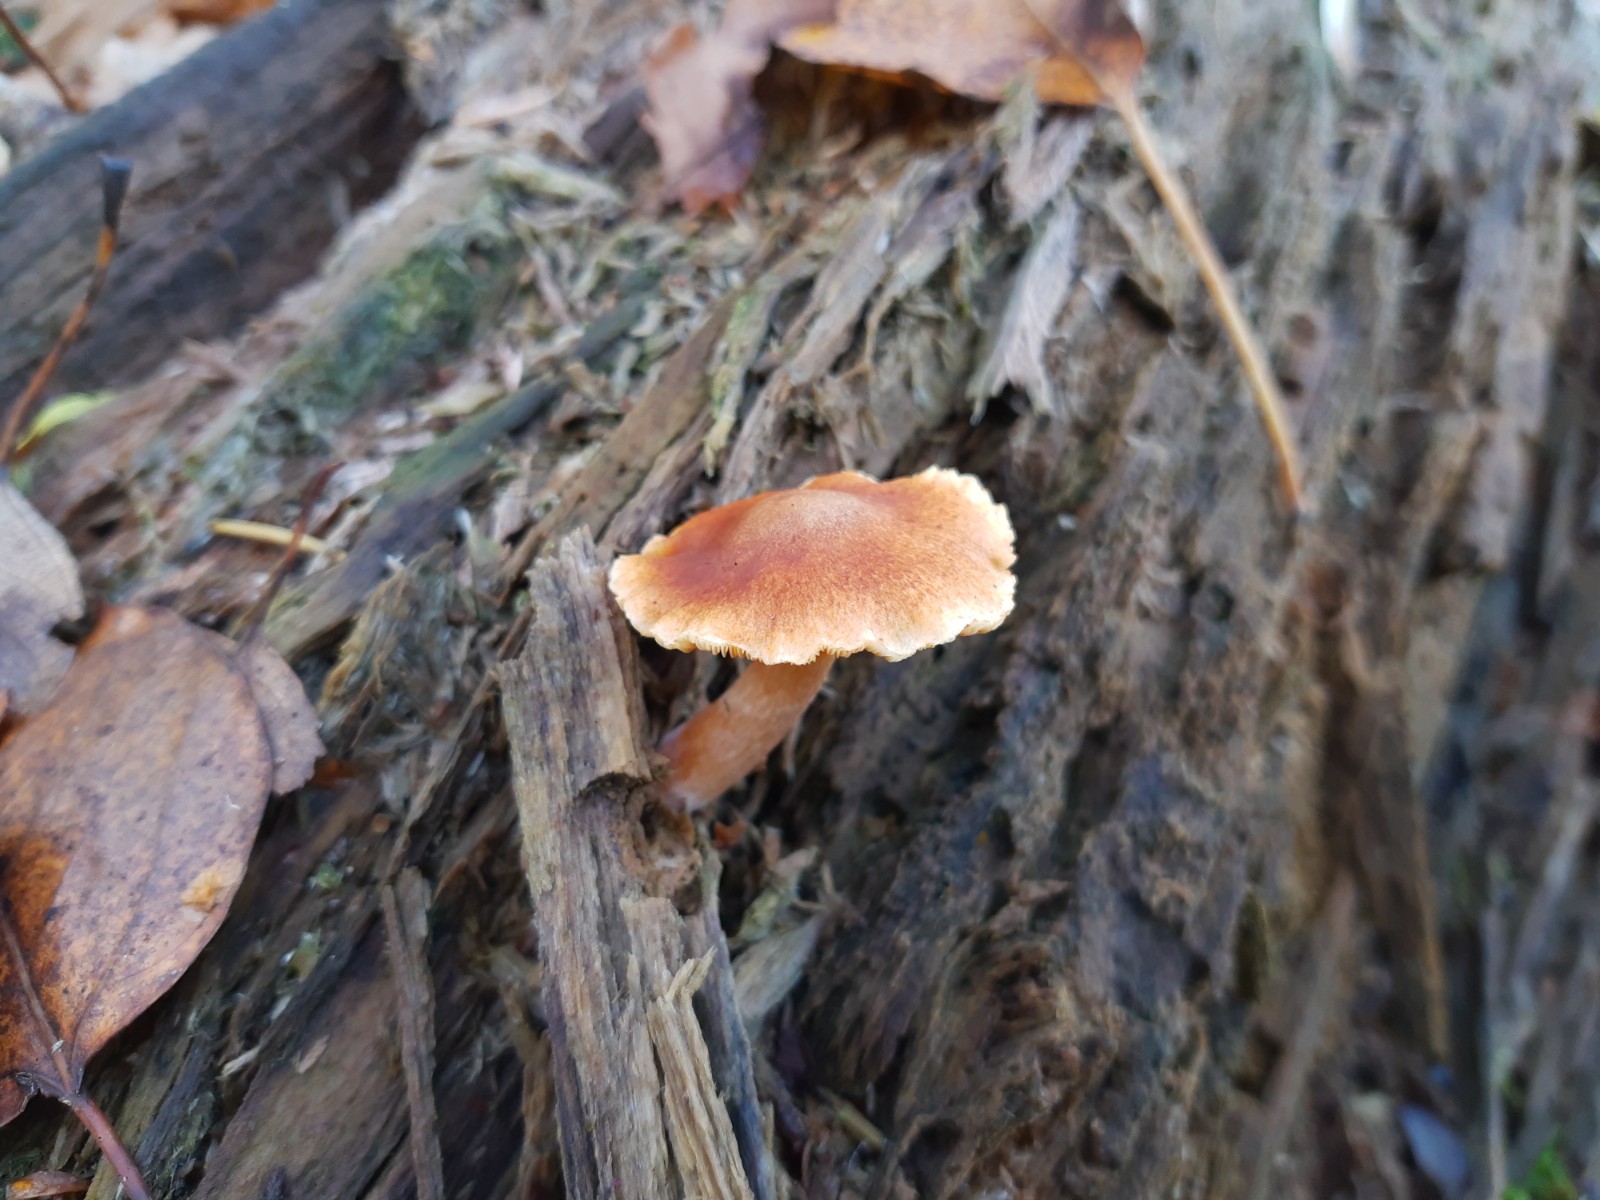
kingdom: Fungi
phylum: Basidiomycota
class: Agaricomycetes
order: Agaricales
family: Hymenogastraceae
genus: Gymnopilus
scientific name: Gymnopilus penetrans
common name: plettet flammehat
